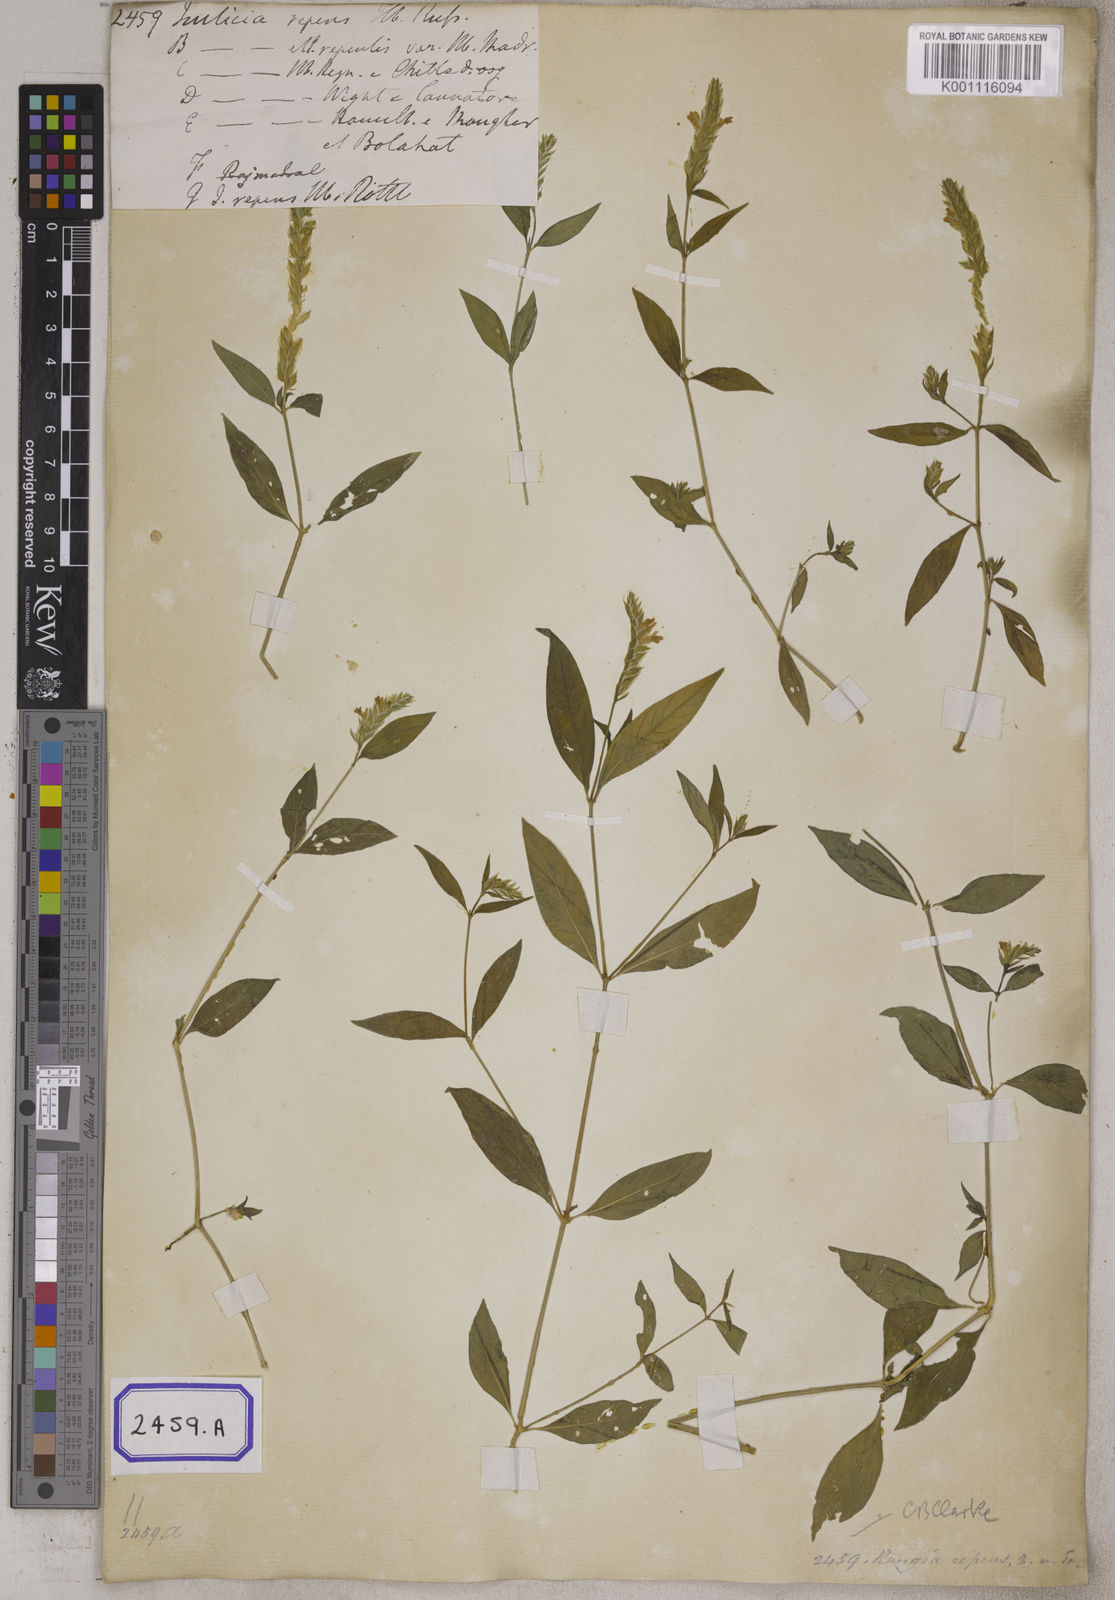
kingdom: Plantae
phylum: Tracheophyta
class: Magnoliopsida
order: Lamiales
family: Acanthaceae
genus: Justicia
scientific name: Justicia
